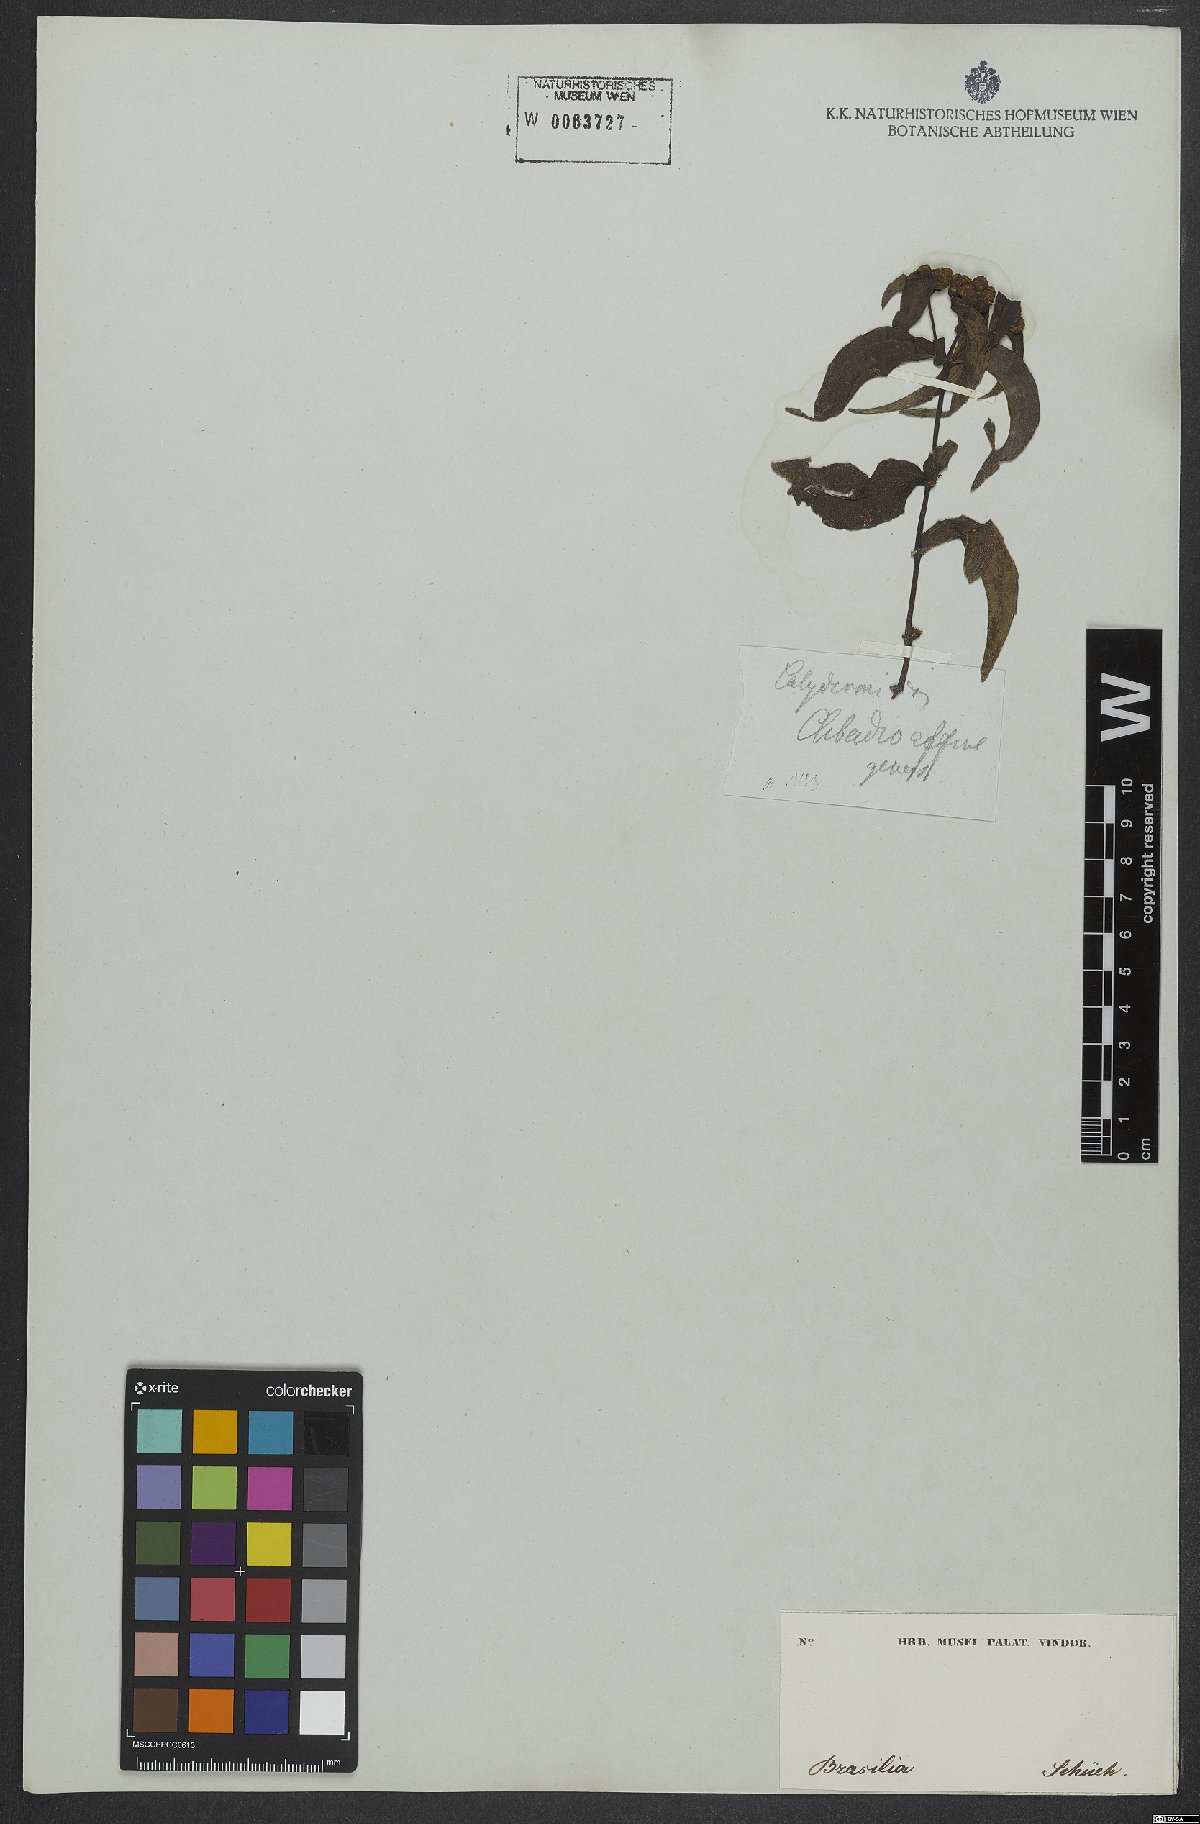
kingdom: Plantae
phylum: Tracheophyta
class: Magnoliopsida
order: Asterales
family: Asteraceae
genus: Ichthyothere
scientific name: Ichthyothere cunabi
